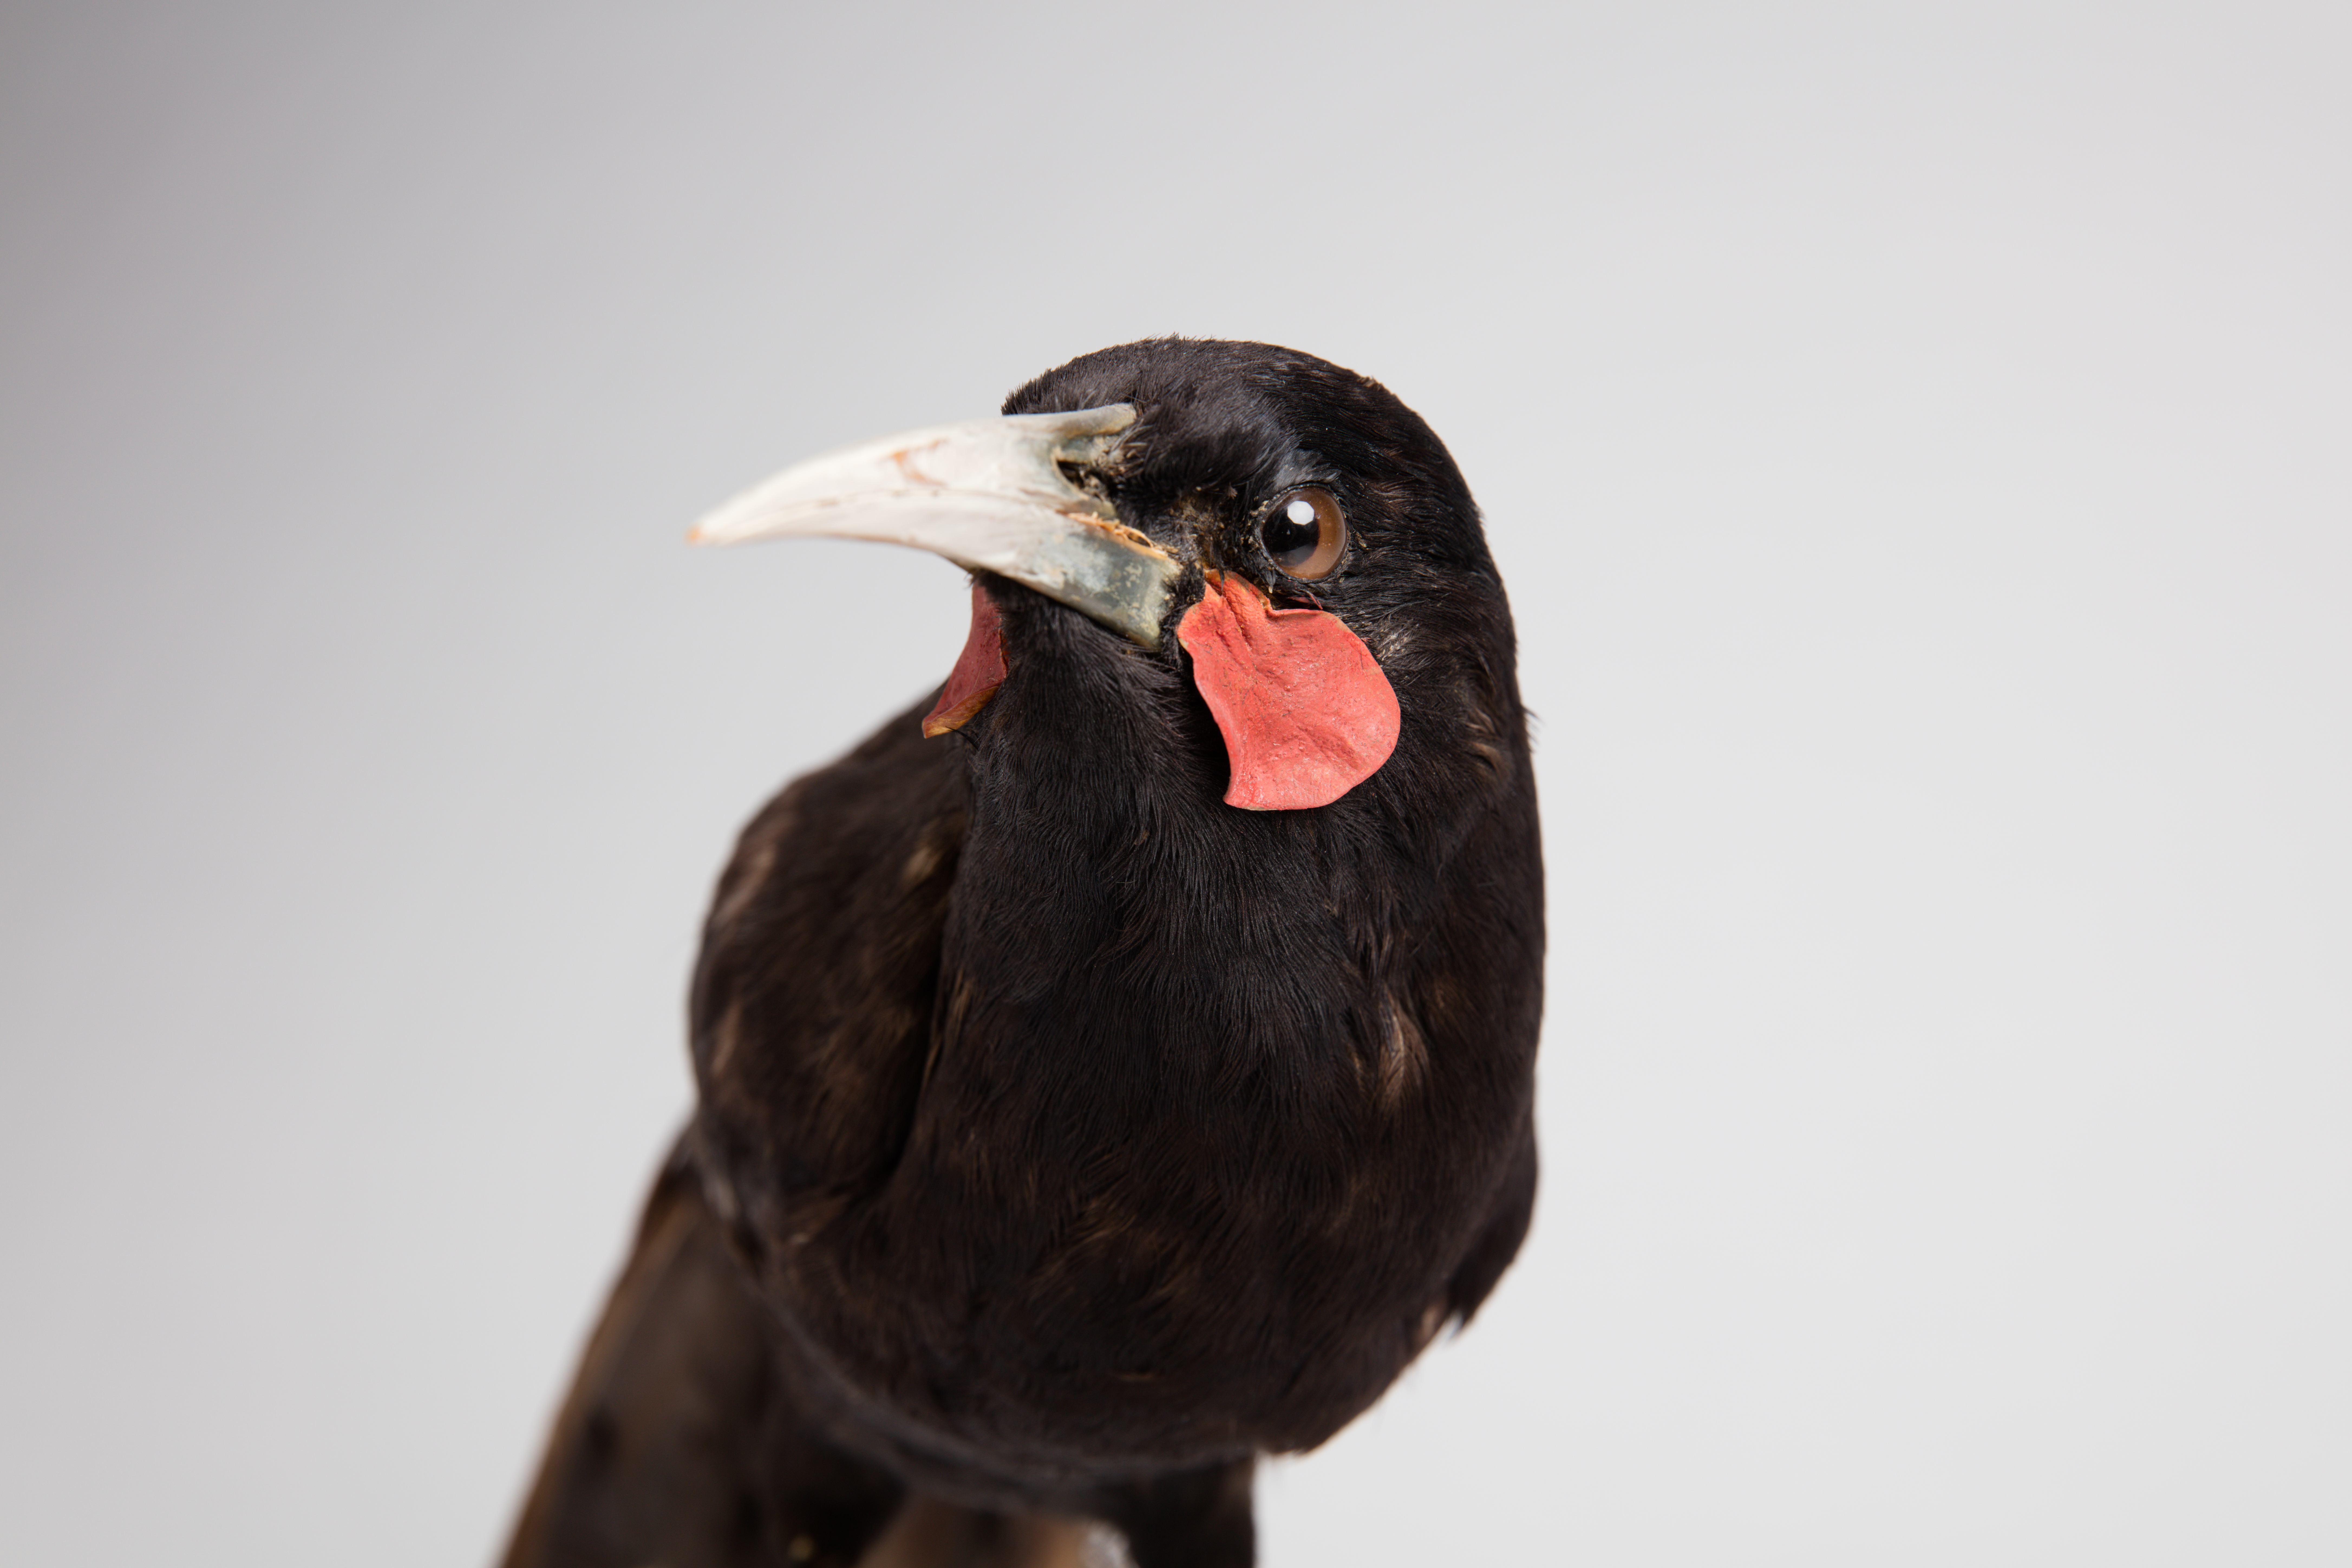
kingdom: Animalia
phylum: Chordata
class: Aves
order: Passeriformes
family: Callaeatidae
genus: Heteralocha
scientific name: Heteralocha acutirostris
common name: Huia
